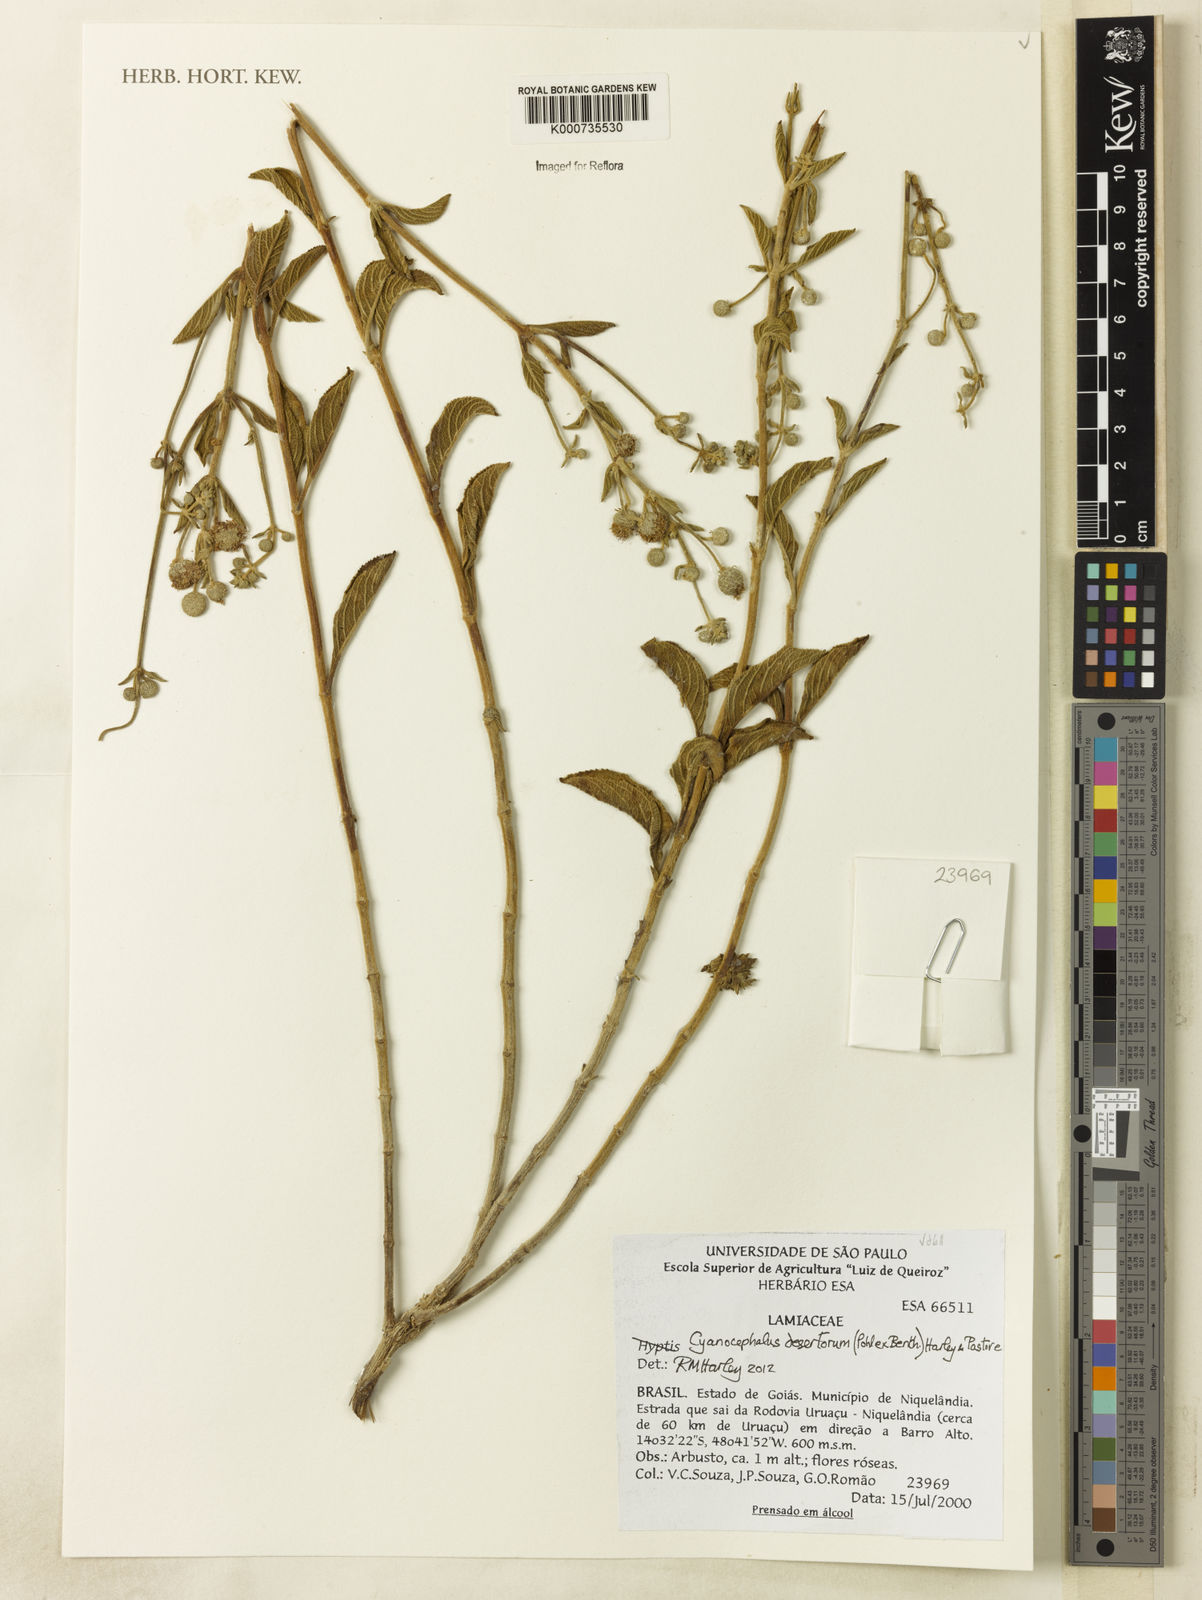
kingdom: Plantae
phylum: Tracheophyta
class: Magnoliopsida
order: Lamiales
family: Lamiaceae
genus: Cyanocephalus
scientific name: Cyanocephalus desertorum
